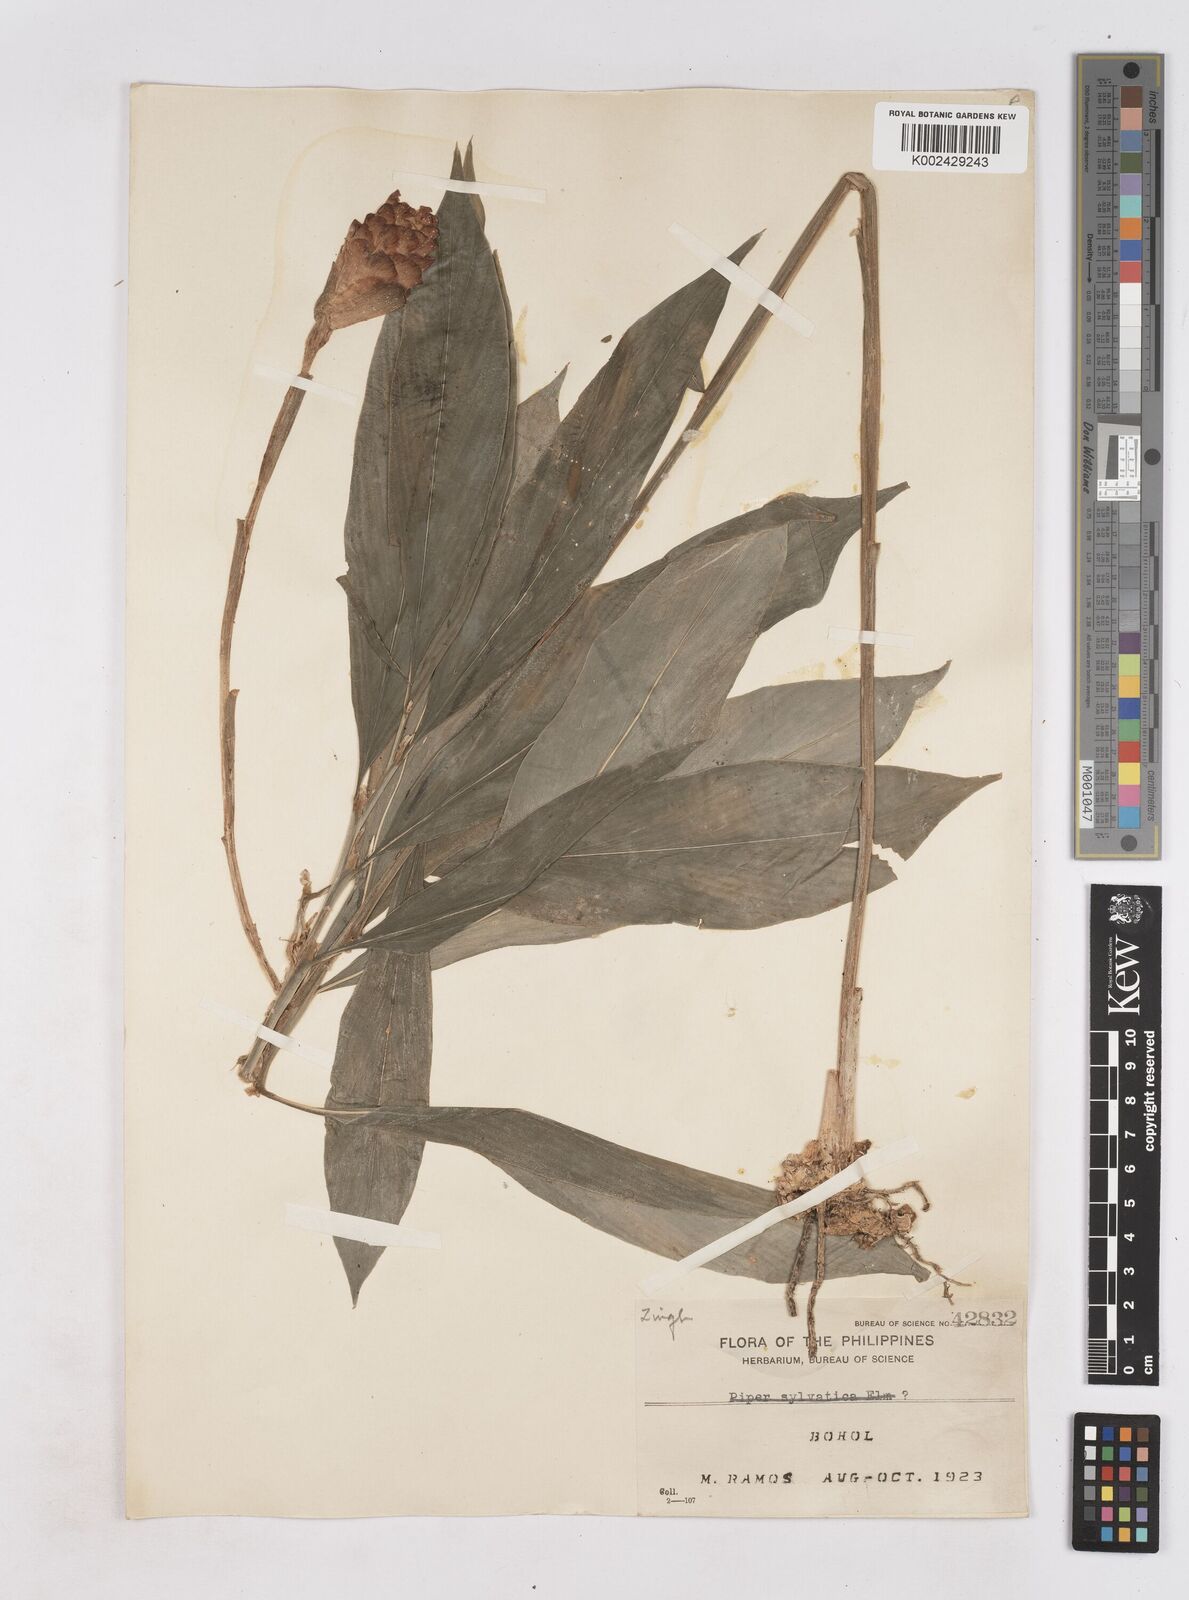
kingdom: Plantae
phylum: Tracheophyta
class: Liliopsida
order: Zingiberales
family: Zingiberaceae
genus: Zingiber
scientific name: Zingiber
